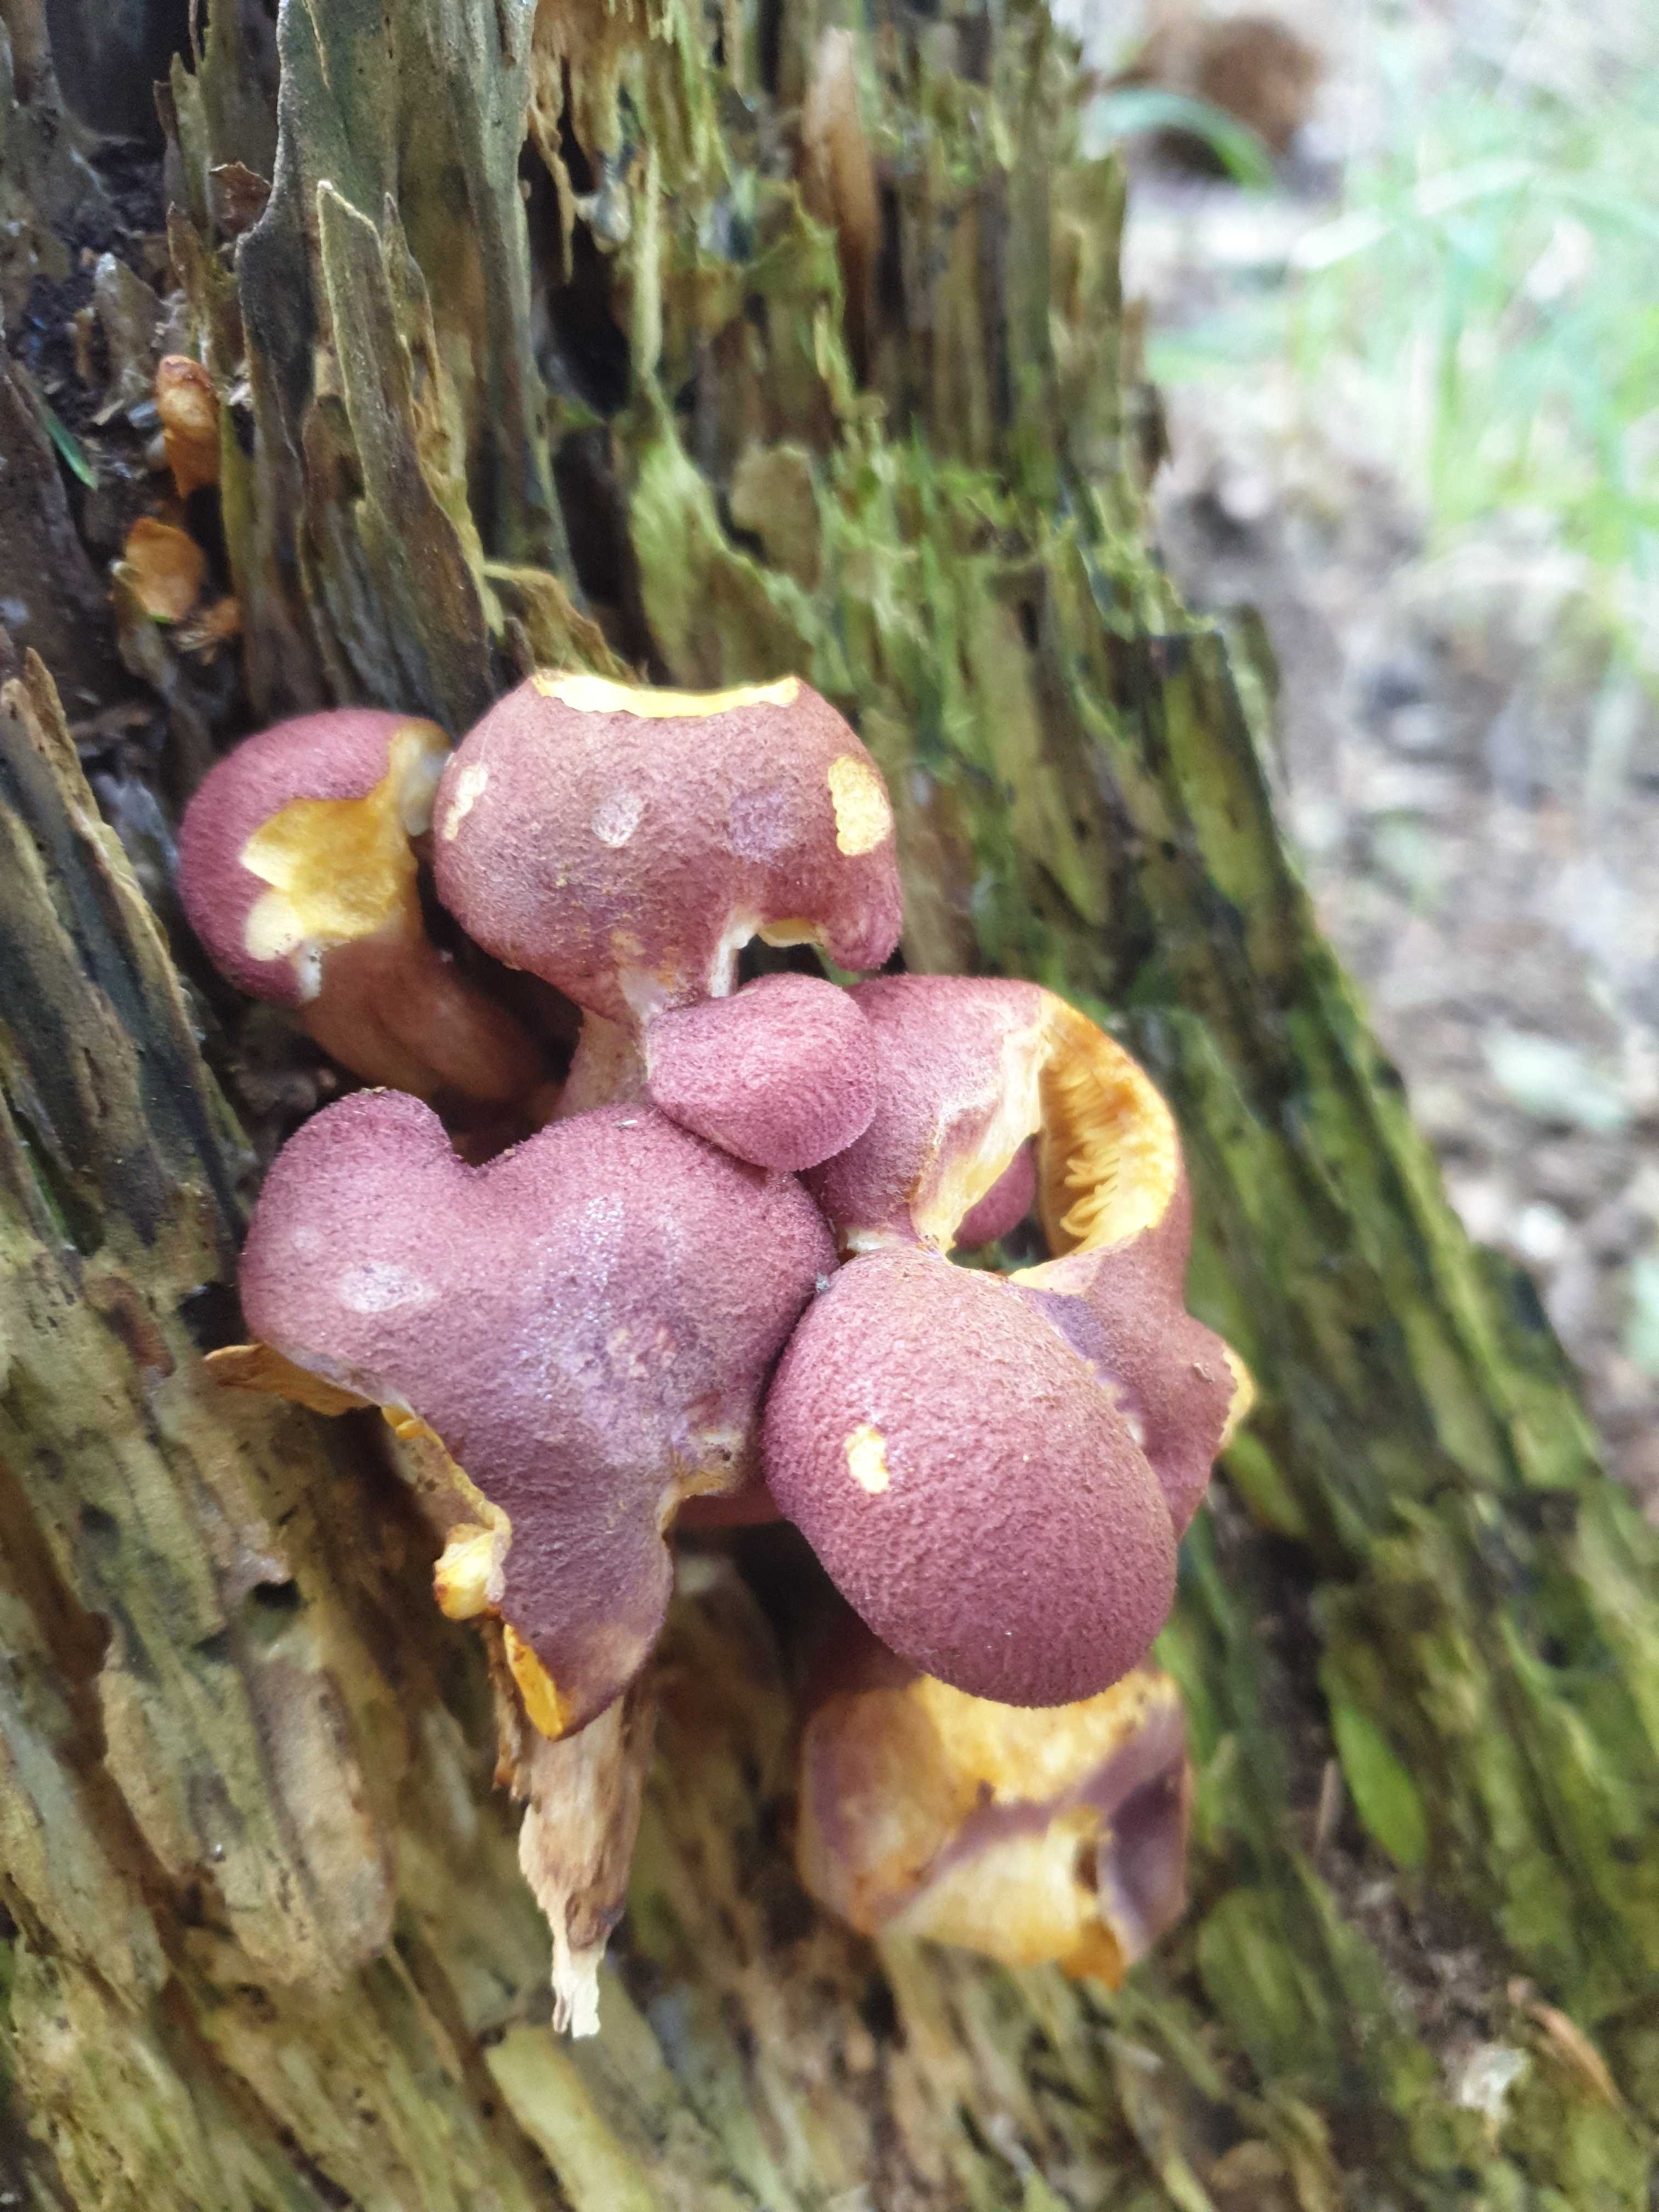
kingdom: Fungi
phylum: Basidiomycota
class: Agaricomycetes
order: Agaricales
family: Tricholomataceae
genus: Tricholomopsis
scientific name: Tricholomopsis rutilans
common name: purpur-væbnerhat
